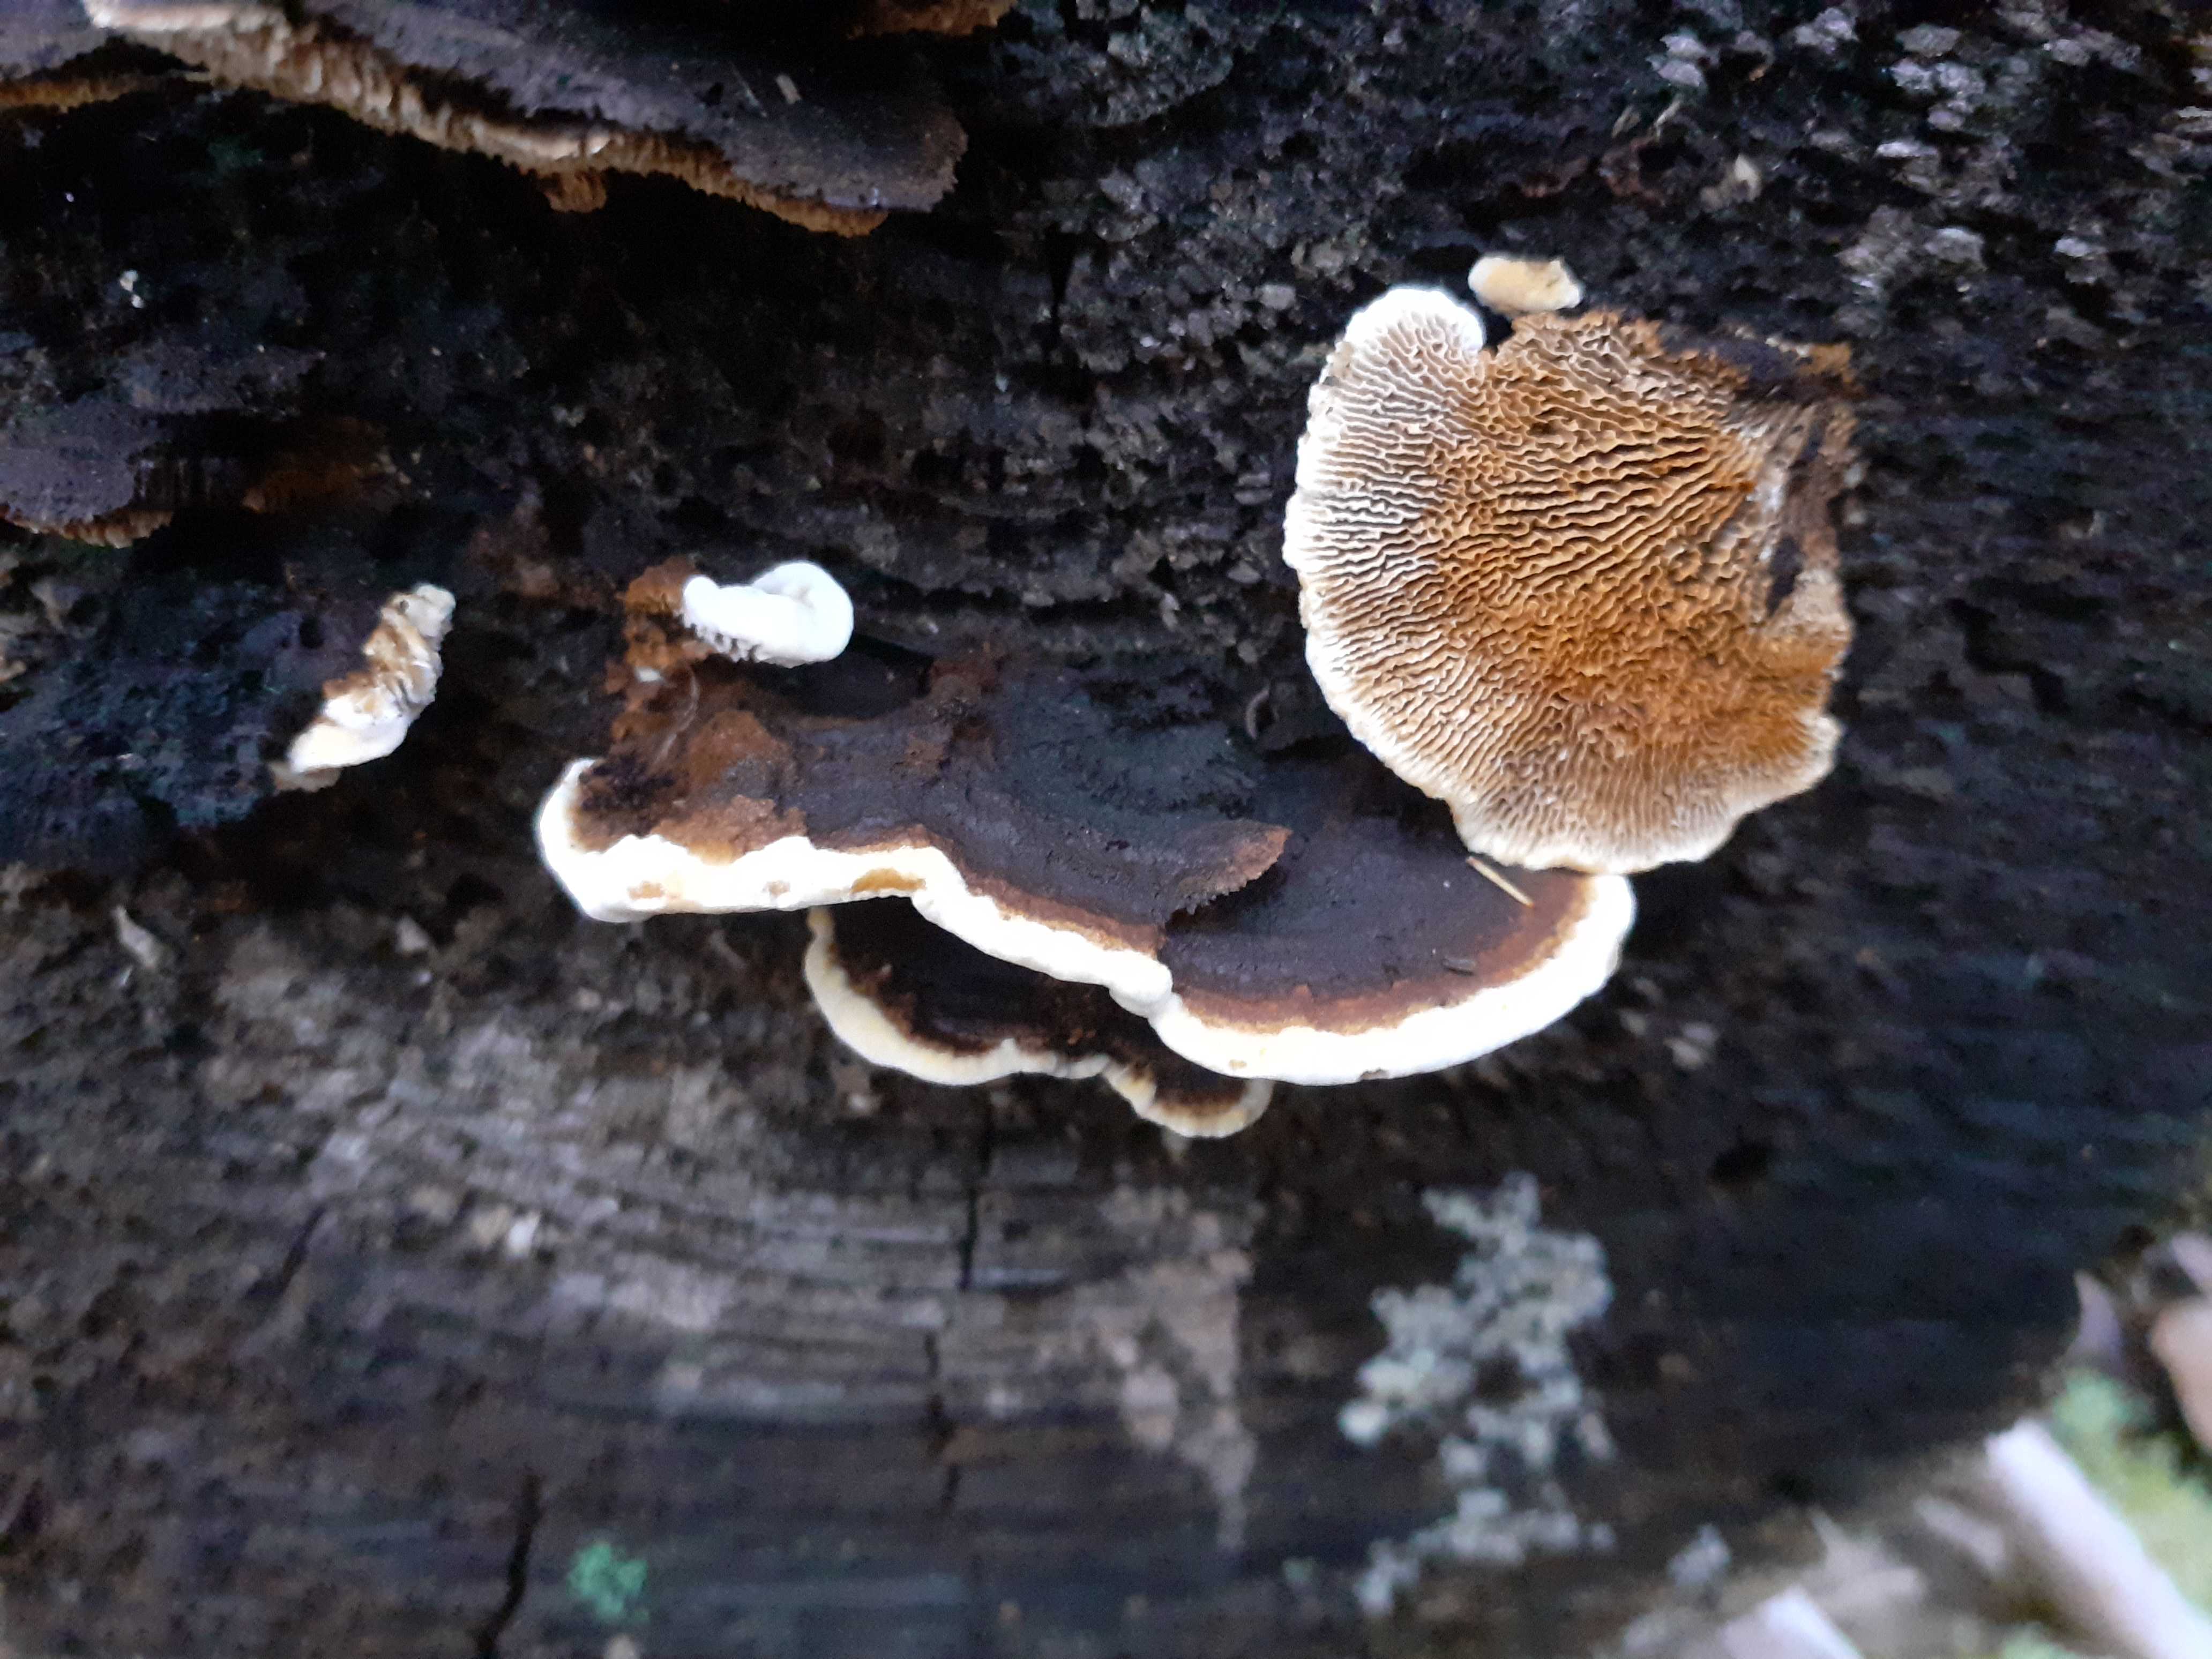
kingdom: Fungi
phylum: Basidiomycota
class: Agaricomycetes
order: Gloeophyllales
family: Gloeophyllaceae
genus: Gloeophyllum
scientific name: Gloeophyllum sepiarium
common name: fyrre-korkhat
